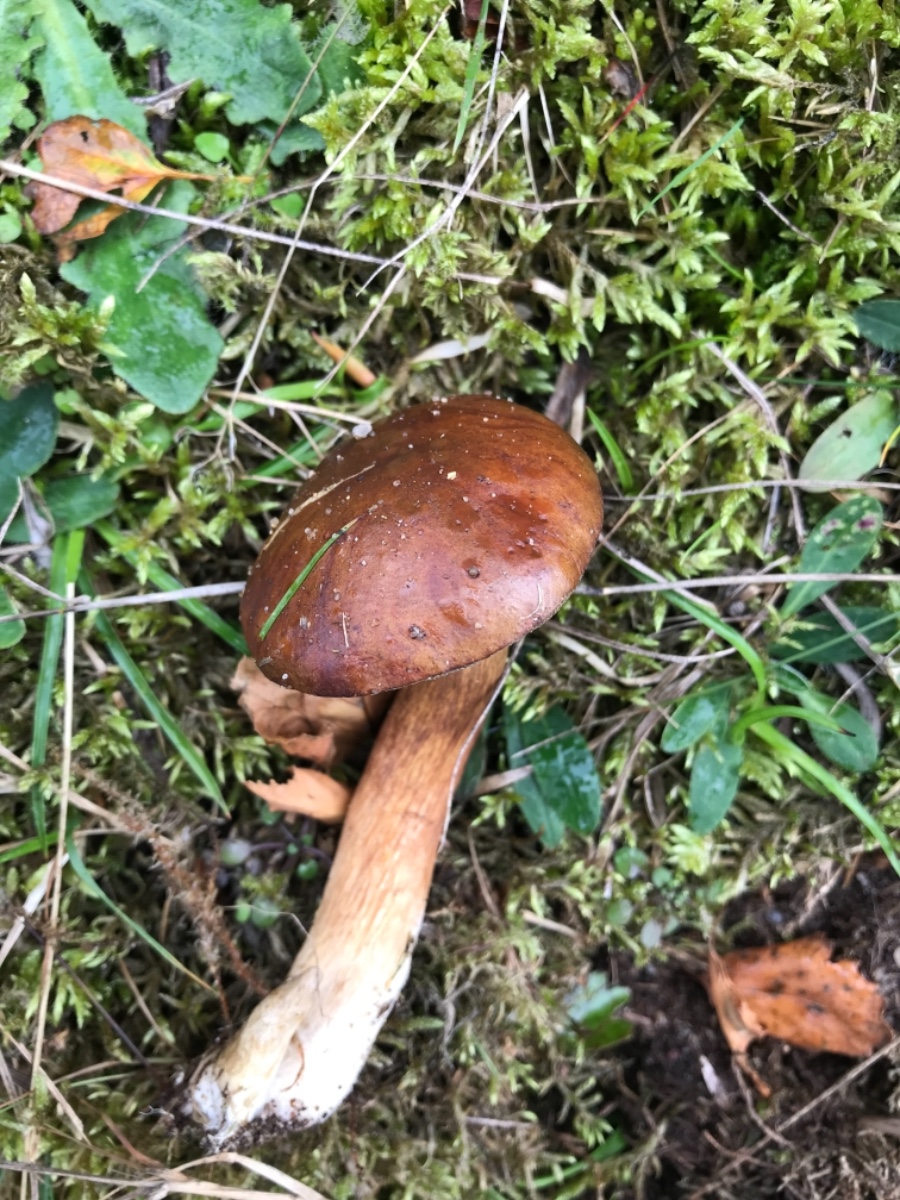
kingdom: Fungi
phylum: Basidiomycota
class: Agaricomycetes
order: Boletales
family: Boletaceae
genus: Imleria
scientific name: Imleria badia
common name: brunstokket rørhat
